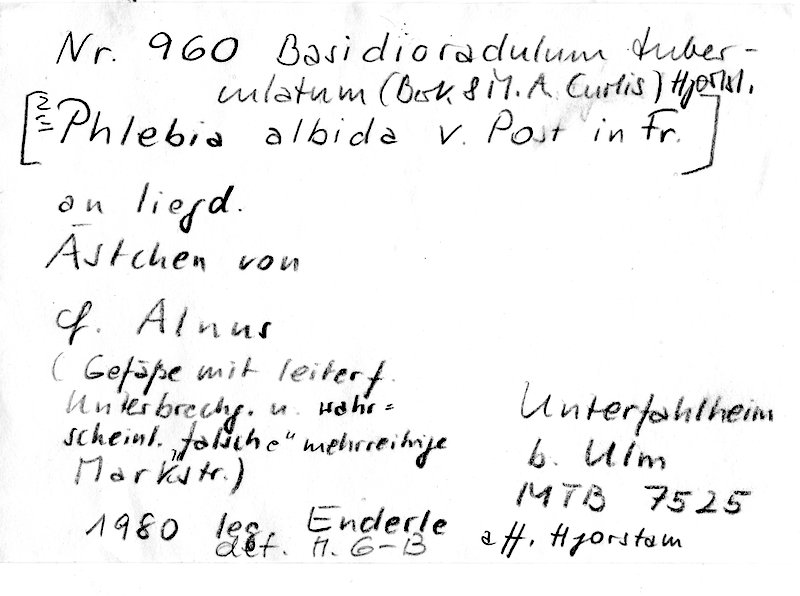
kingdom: Plantae
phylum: Tracheophyta
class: Magnoliopsida
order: Fagales
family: Betulaceae
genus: Alnus
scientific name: Alnus
